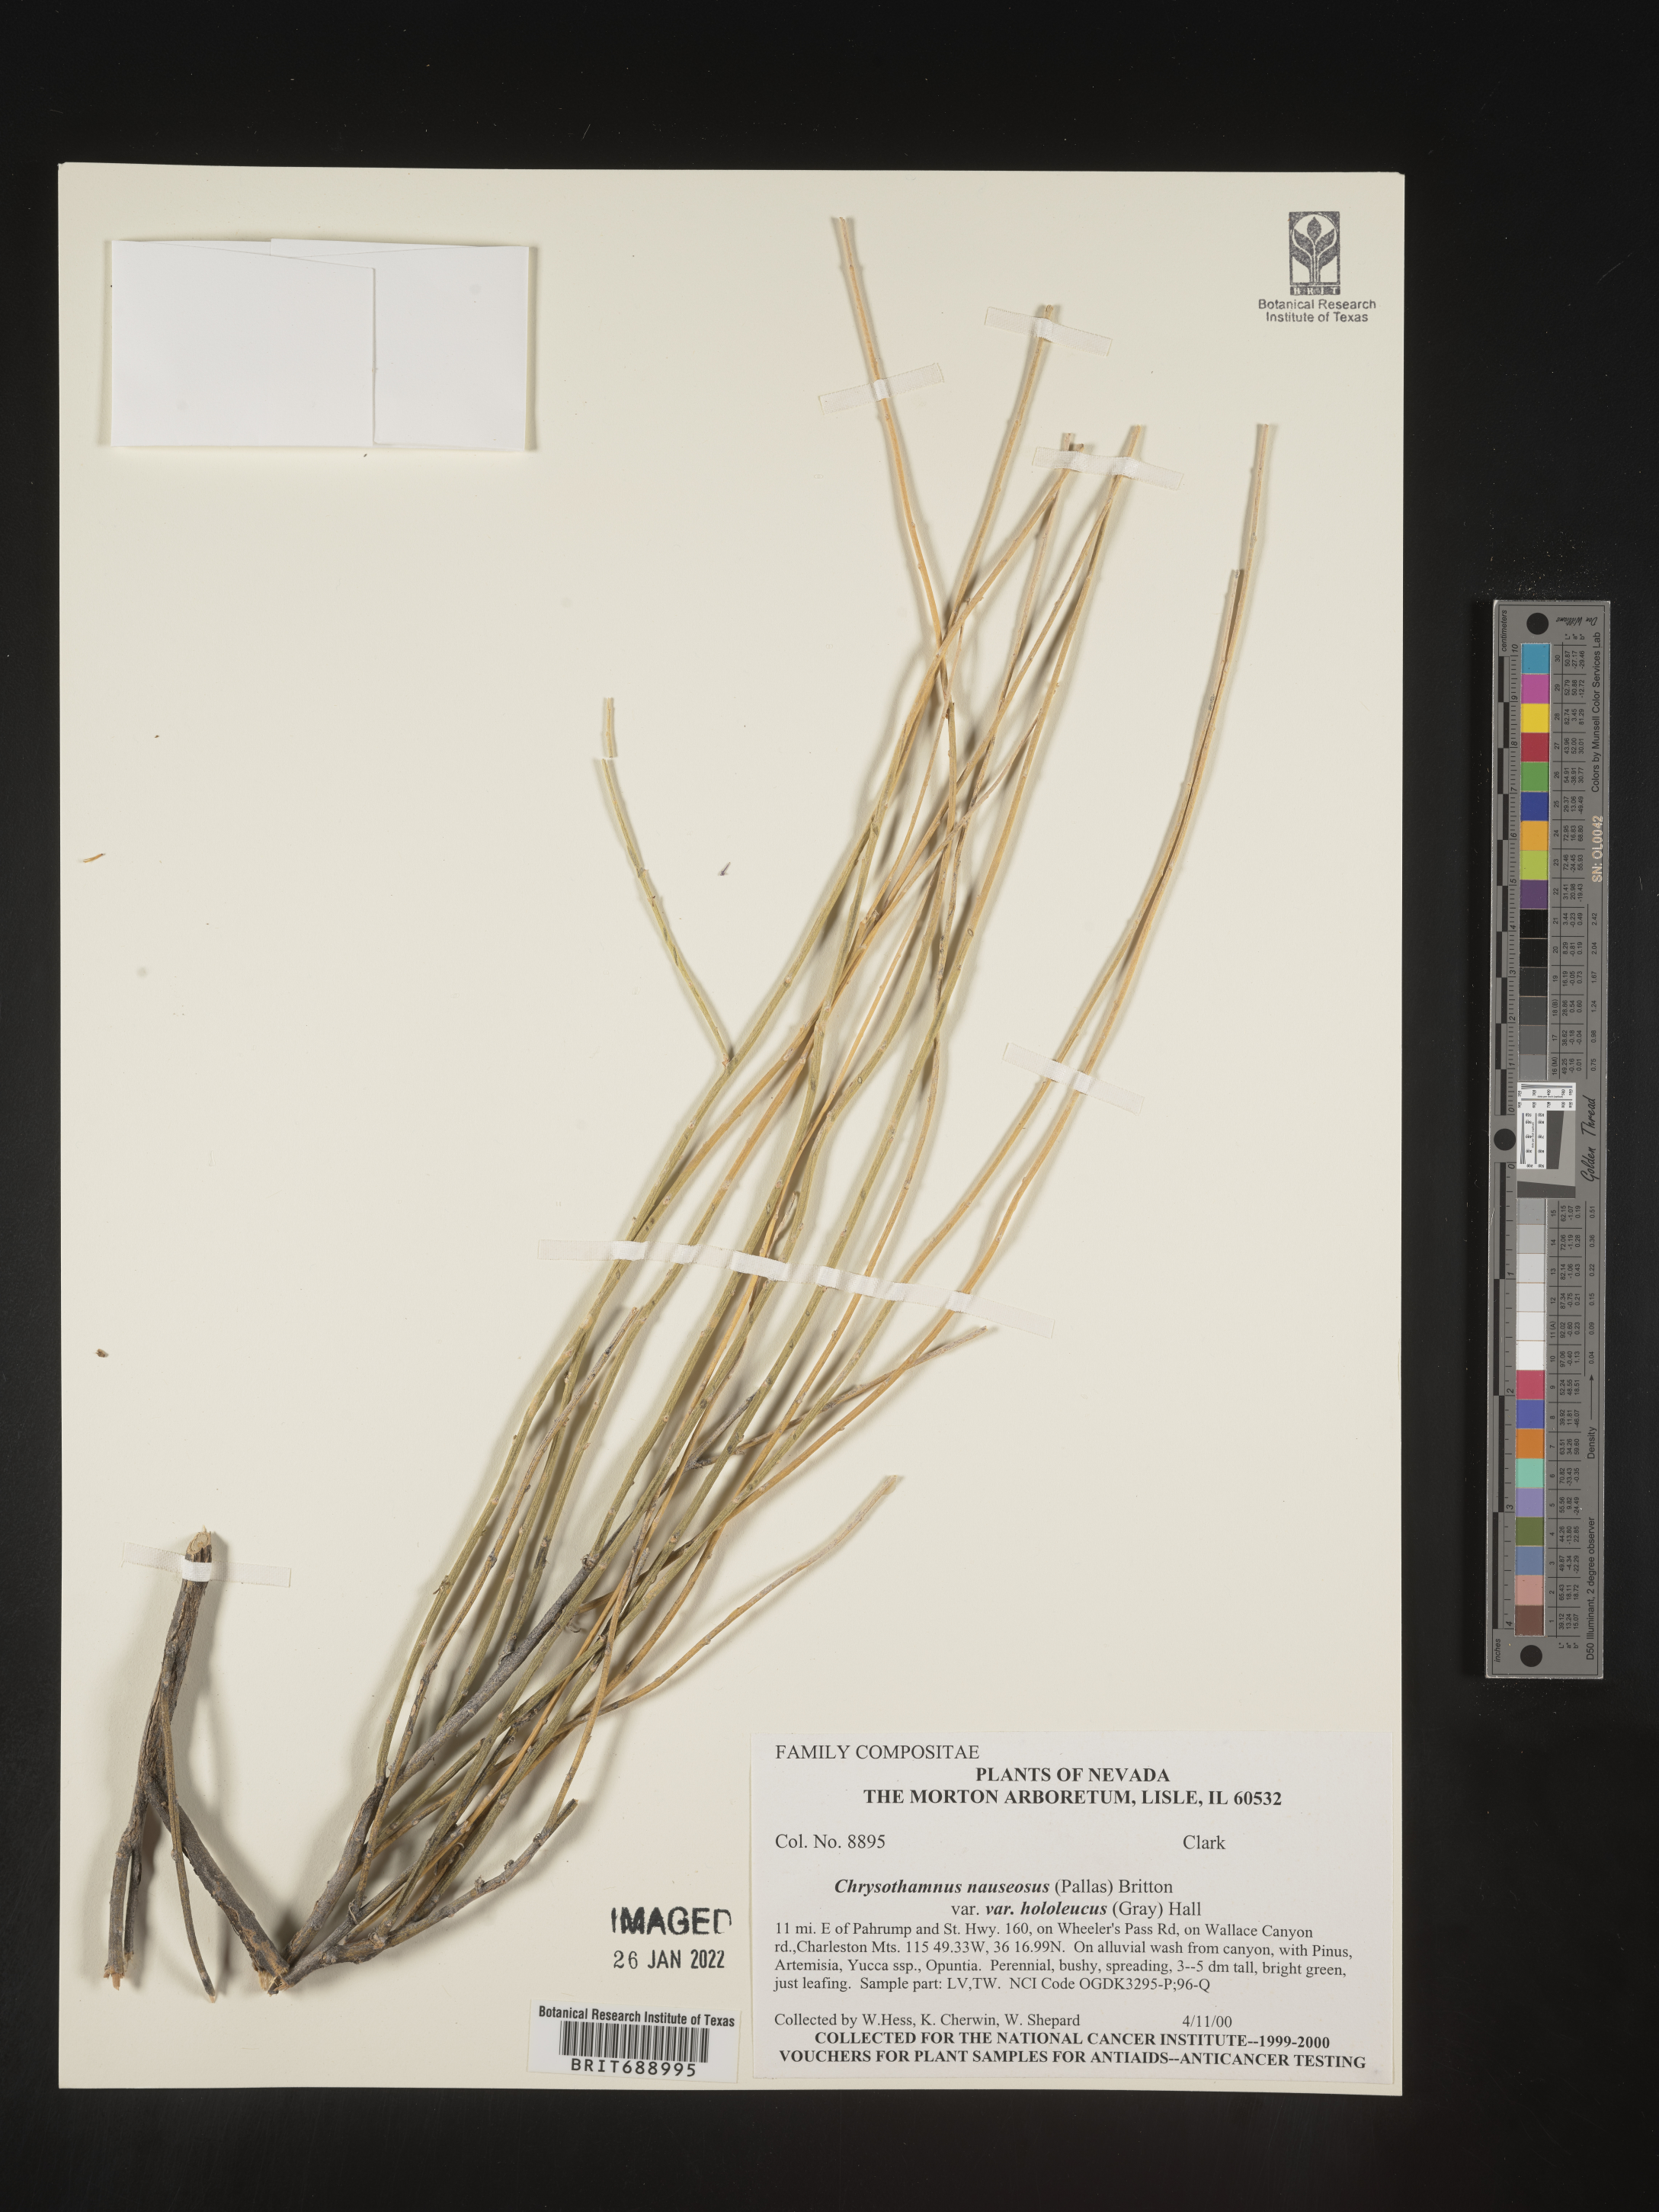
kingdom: Plantae
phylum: Tracheophyta
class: Magnoliopsida
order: Asterales
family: Asteraceae
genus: Ericameria
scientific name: Ericameria nauseosa
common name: Rubber rabbitbrush
